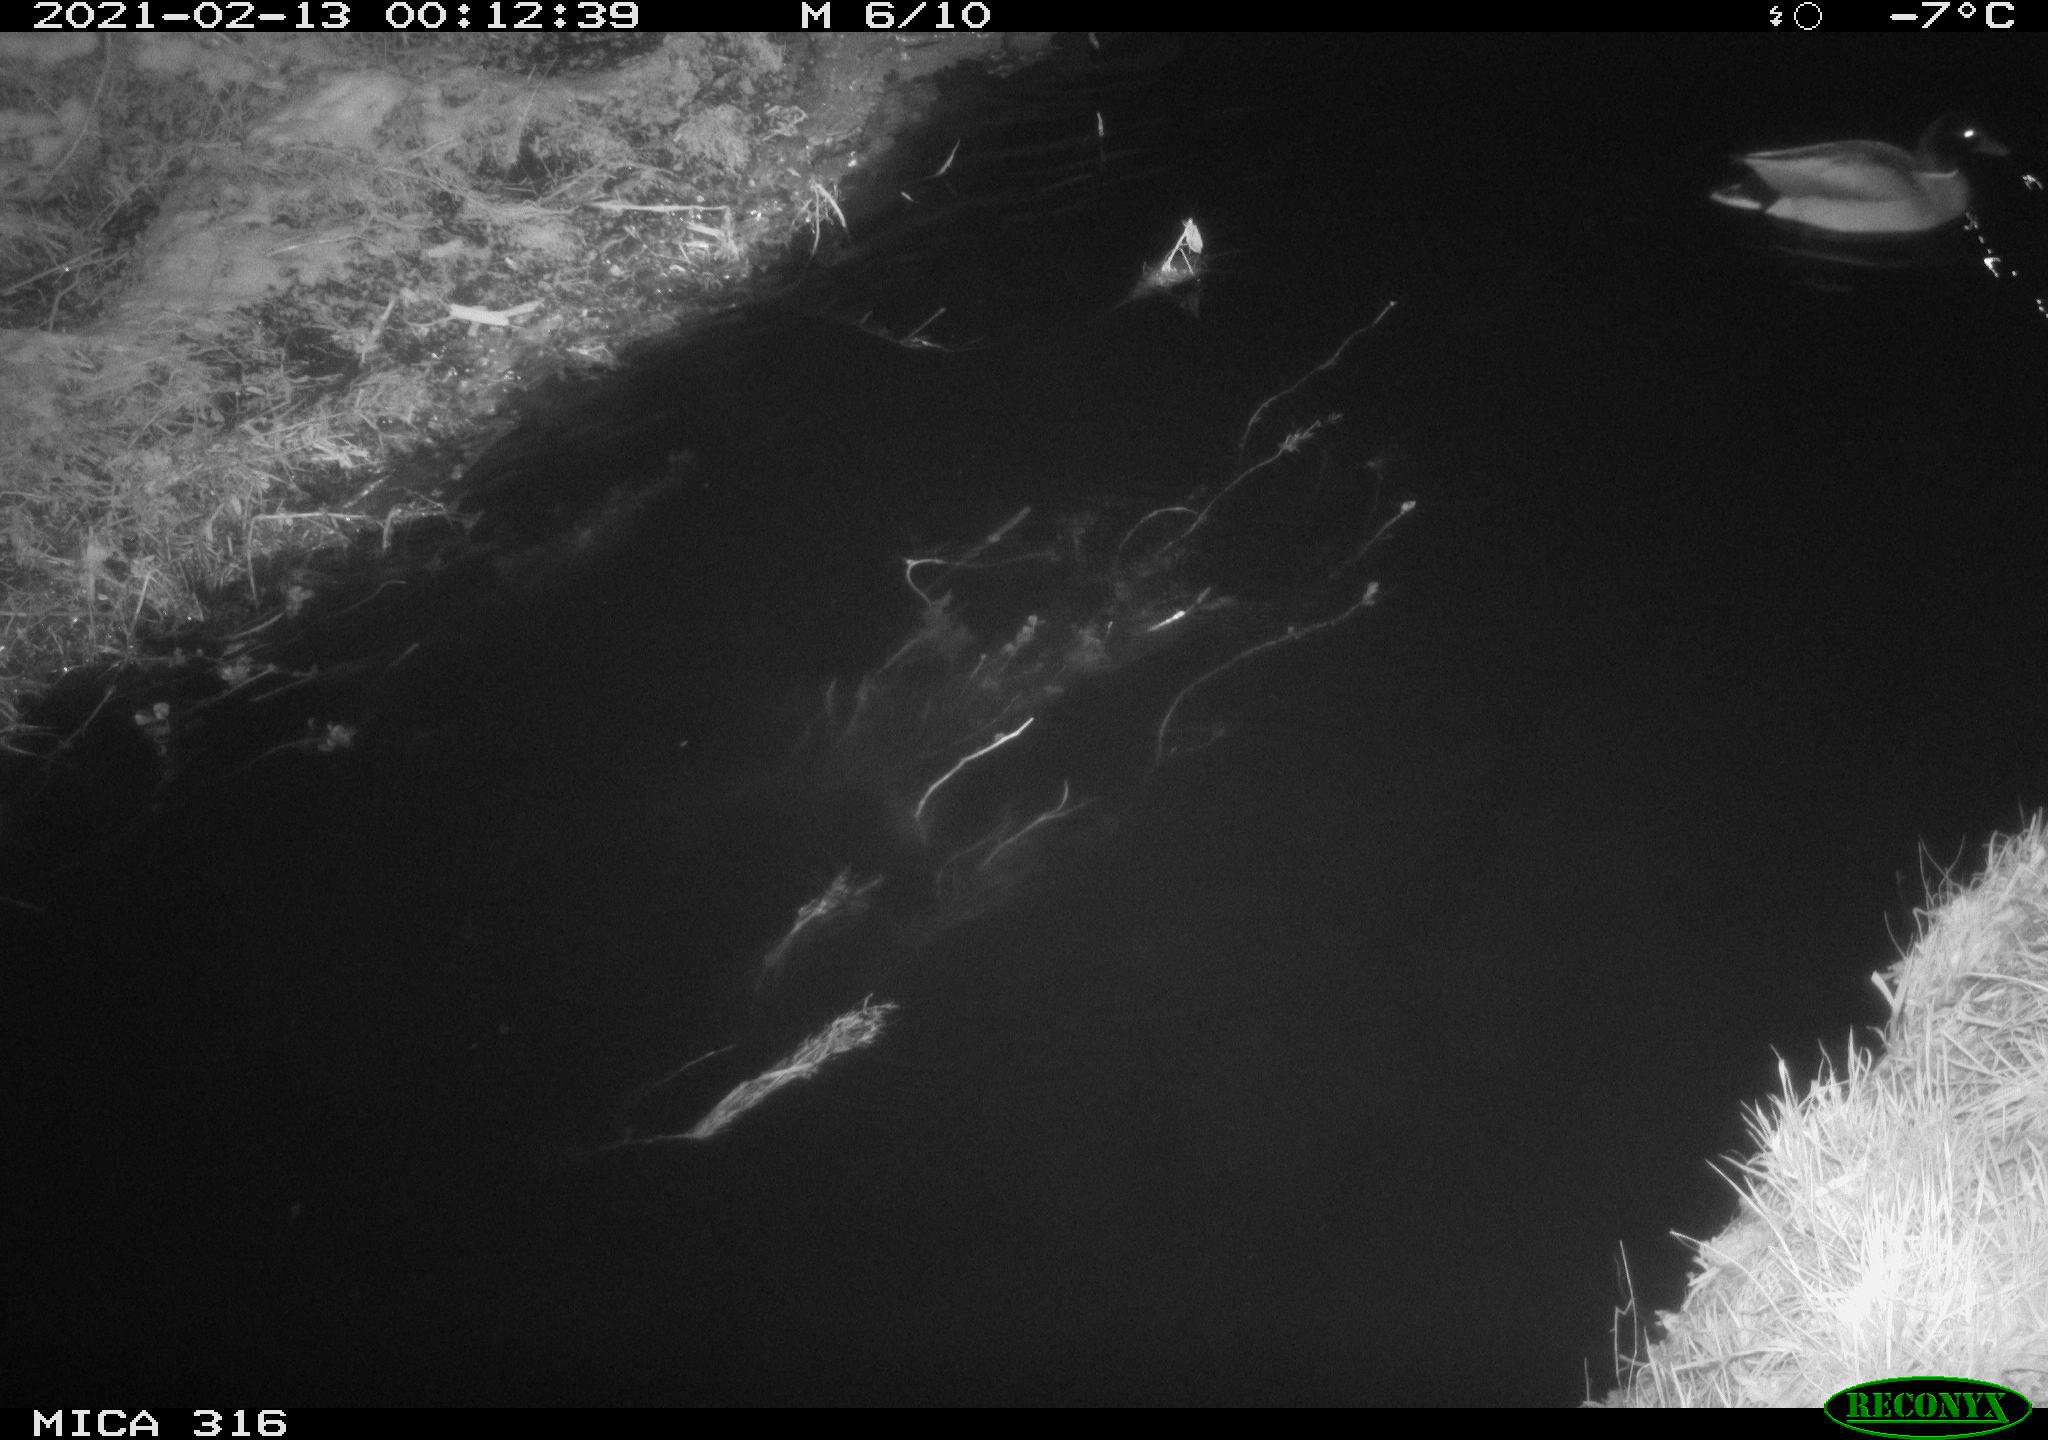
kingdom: Animalia
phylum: Chordata
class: Aves
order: Anseriformes
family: Anatidae
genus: Anas
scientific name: Anas platyrhynchos
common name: Mallard
